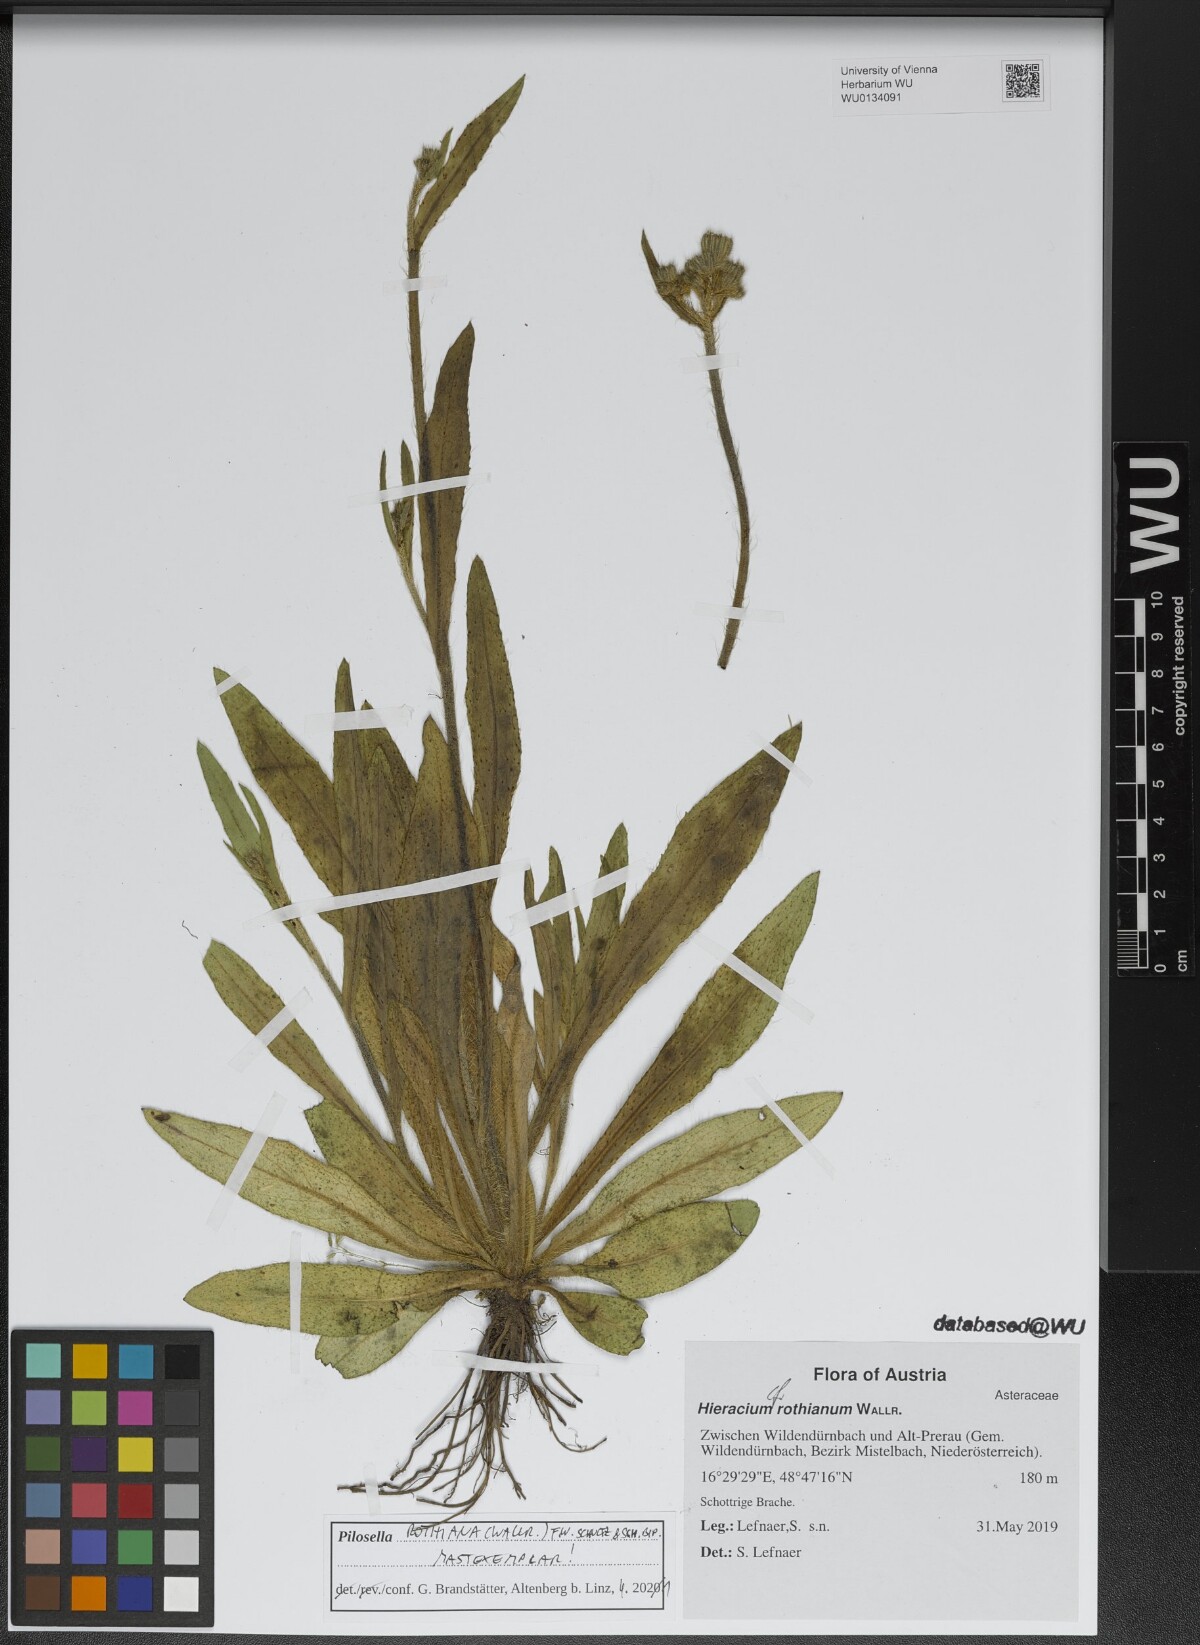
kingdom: Plantae
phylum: Tracheophyta
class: Magnoliopsida
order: Asterales
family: Asteraceae
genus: Pilosella
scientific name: Pilosella rothiana
